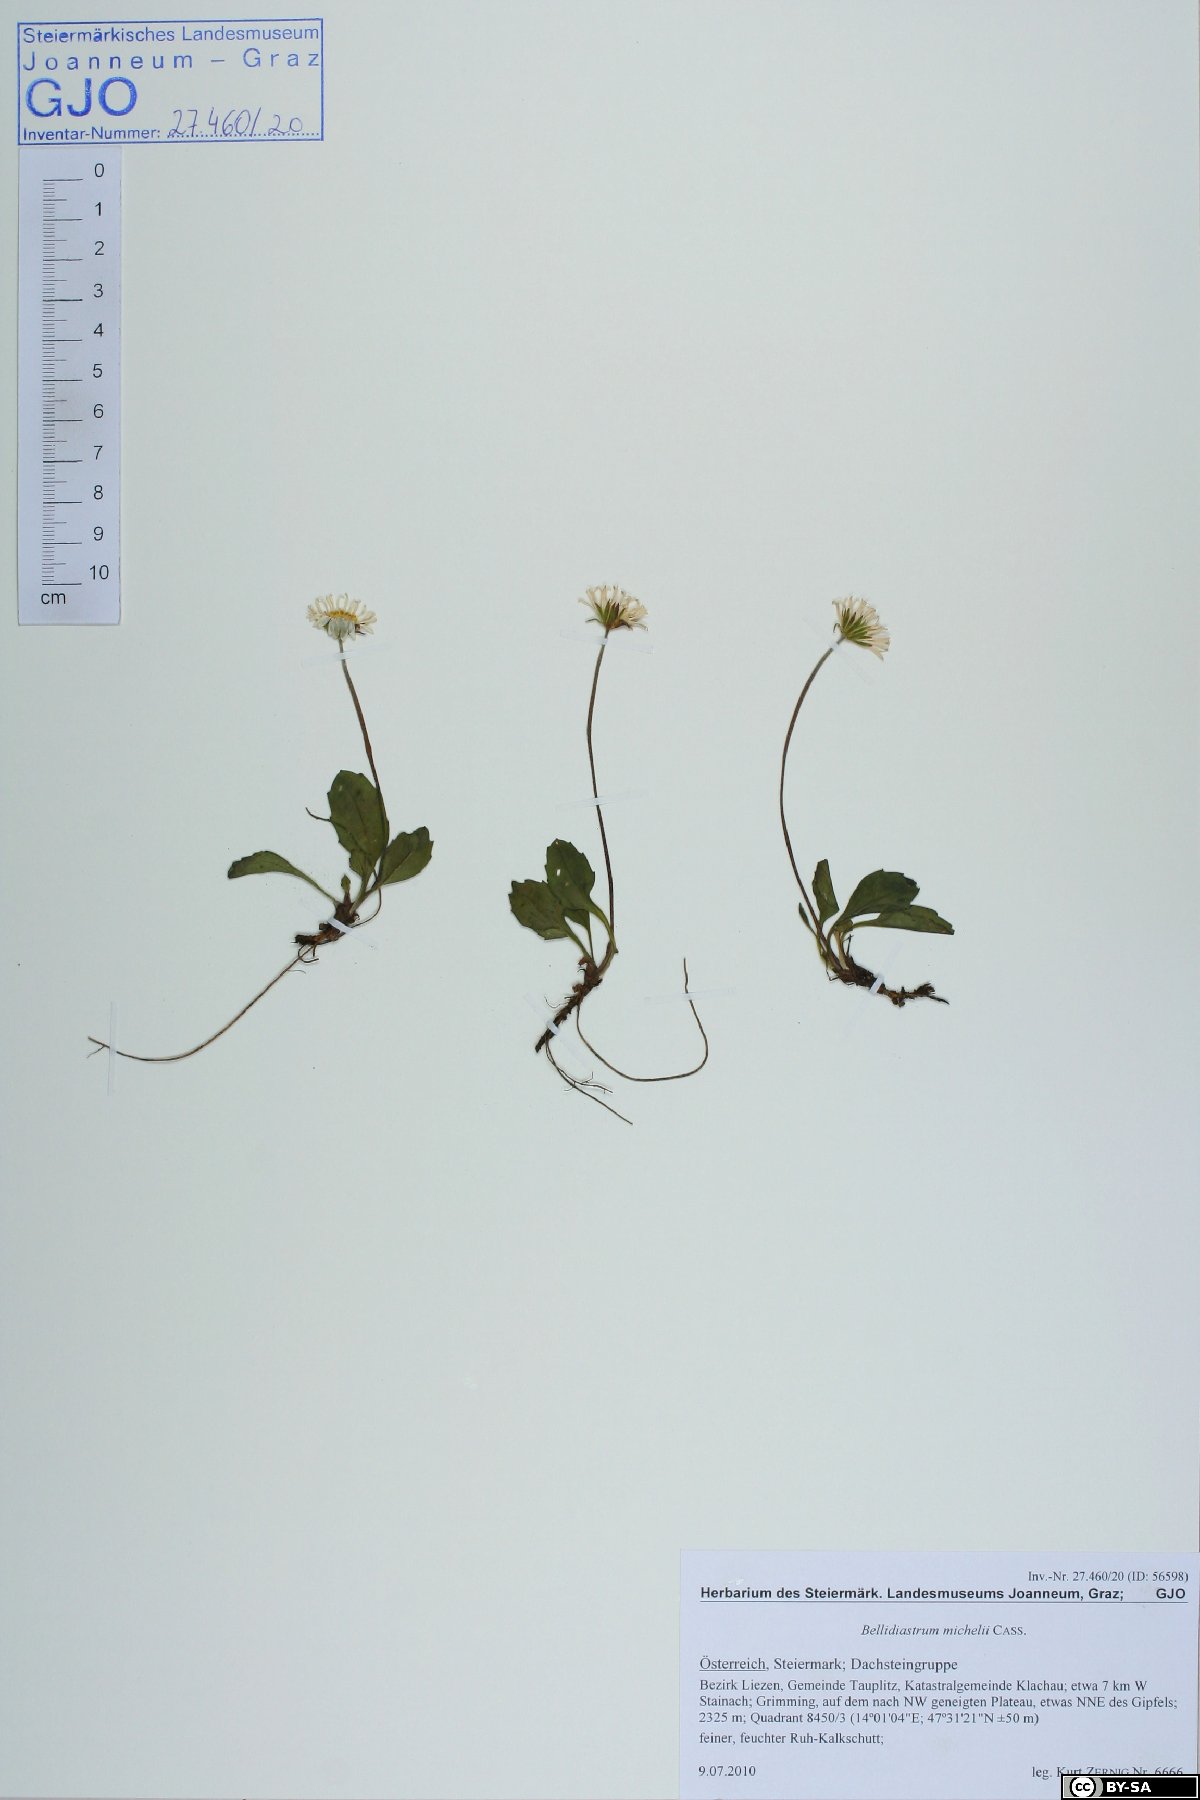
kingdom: Plantae
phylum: Tracheophyta
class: Magnoliopsida
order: Asterales
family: Asteraceae
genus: Bellidiastrum
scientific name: Bellidiastrum michelii
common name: Daisy-star aster
